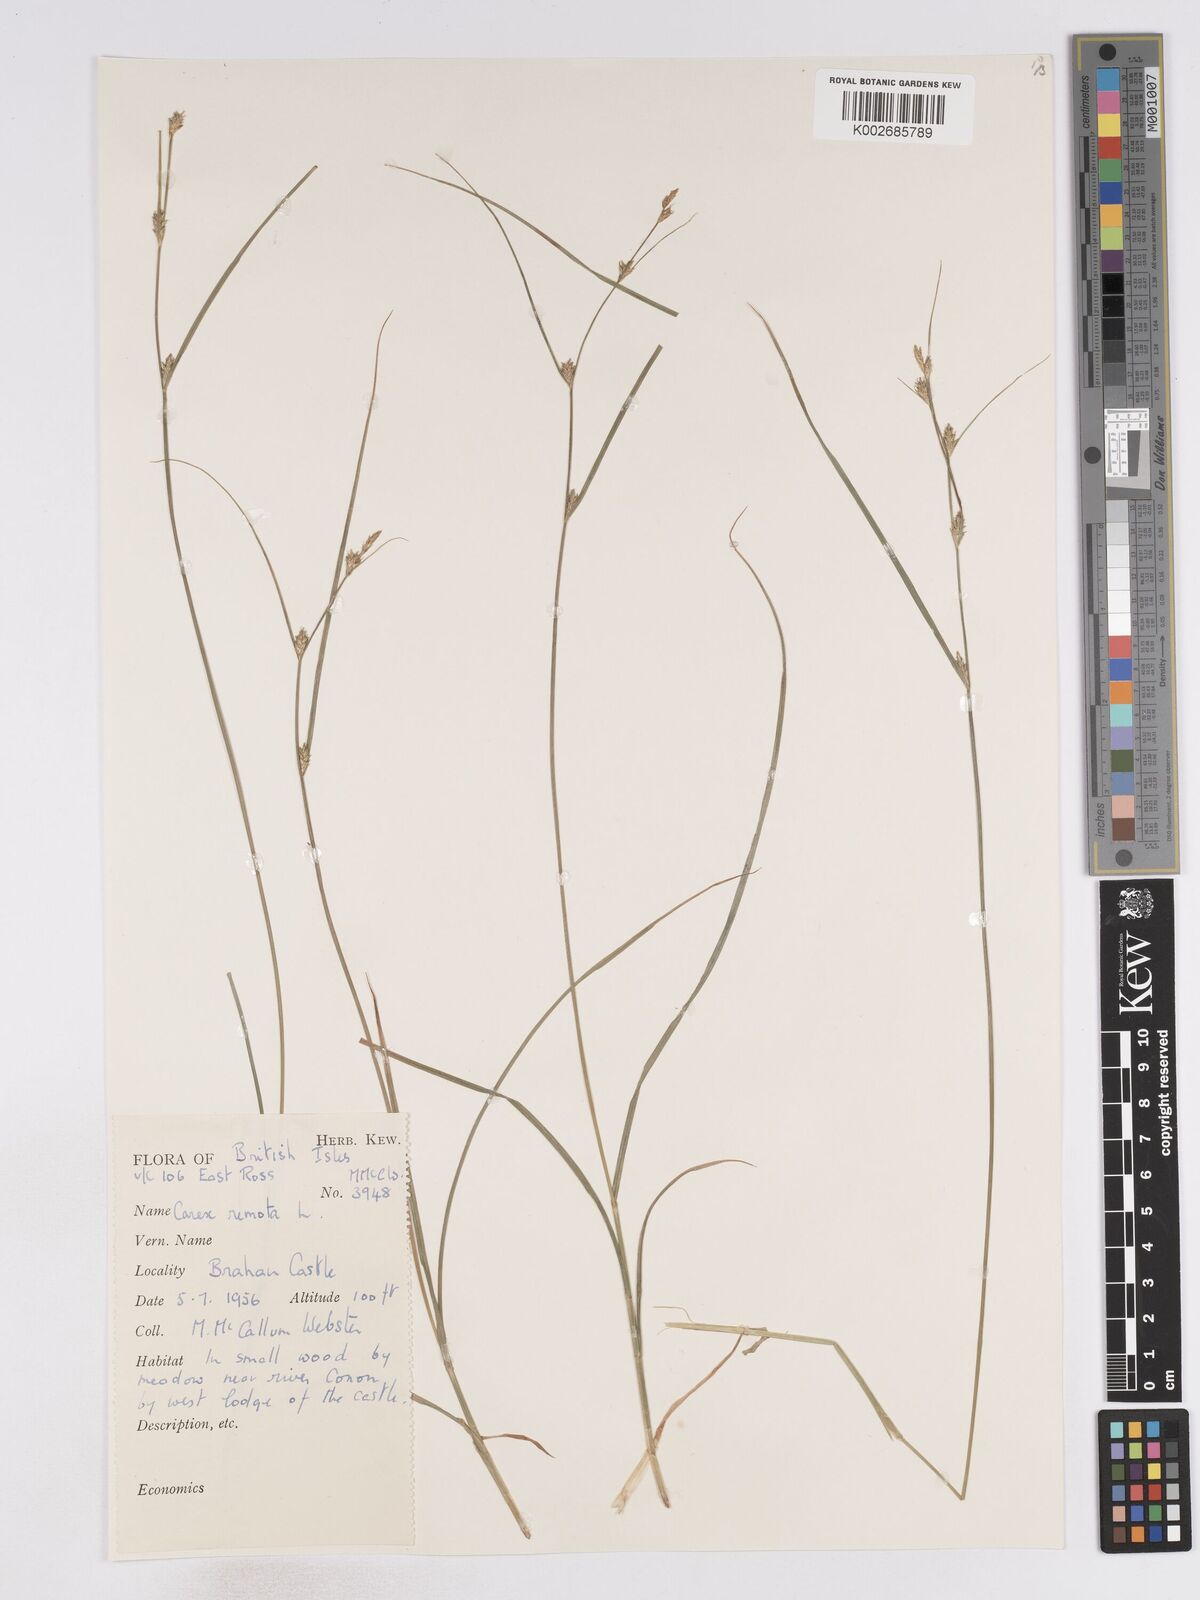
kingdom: Plantae
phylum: Tracheophyta
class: Liliopsida
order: Poales
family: Cyperaceae
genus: Carex
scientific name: Carex remota
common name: Remote sedge
